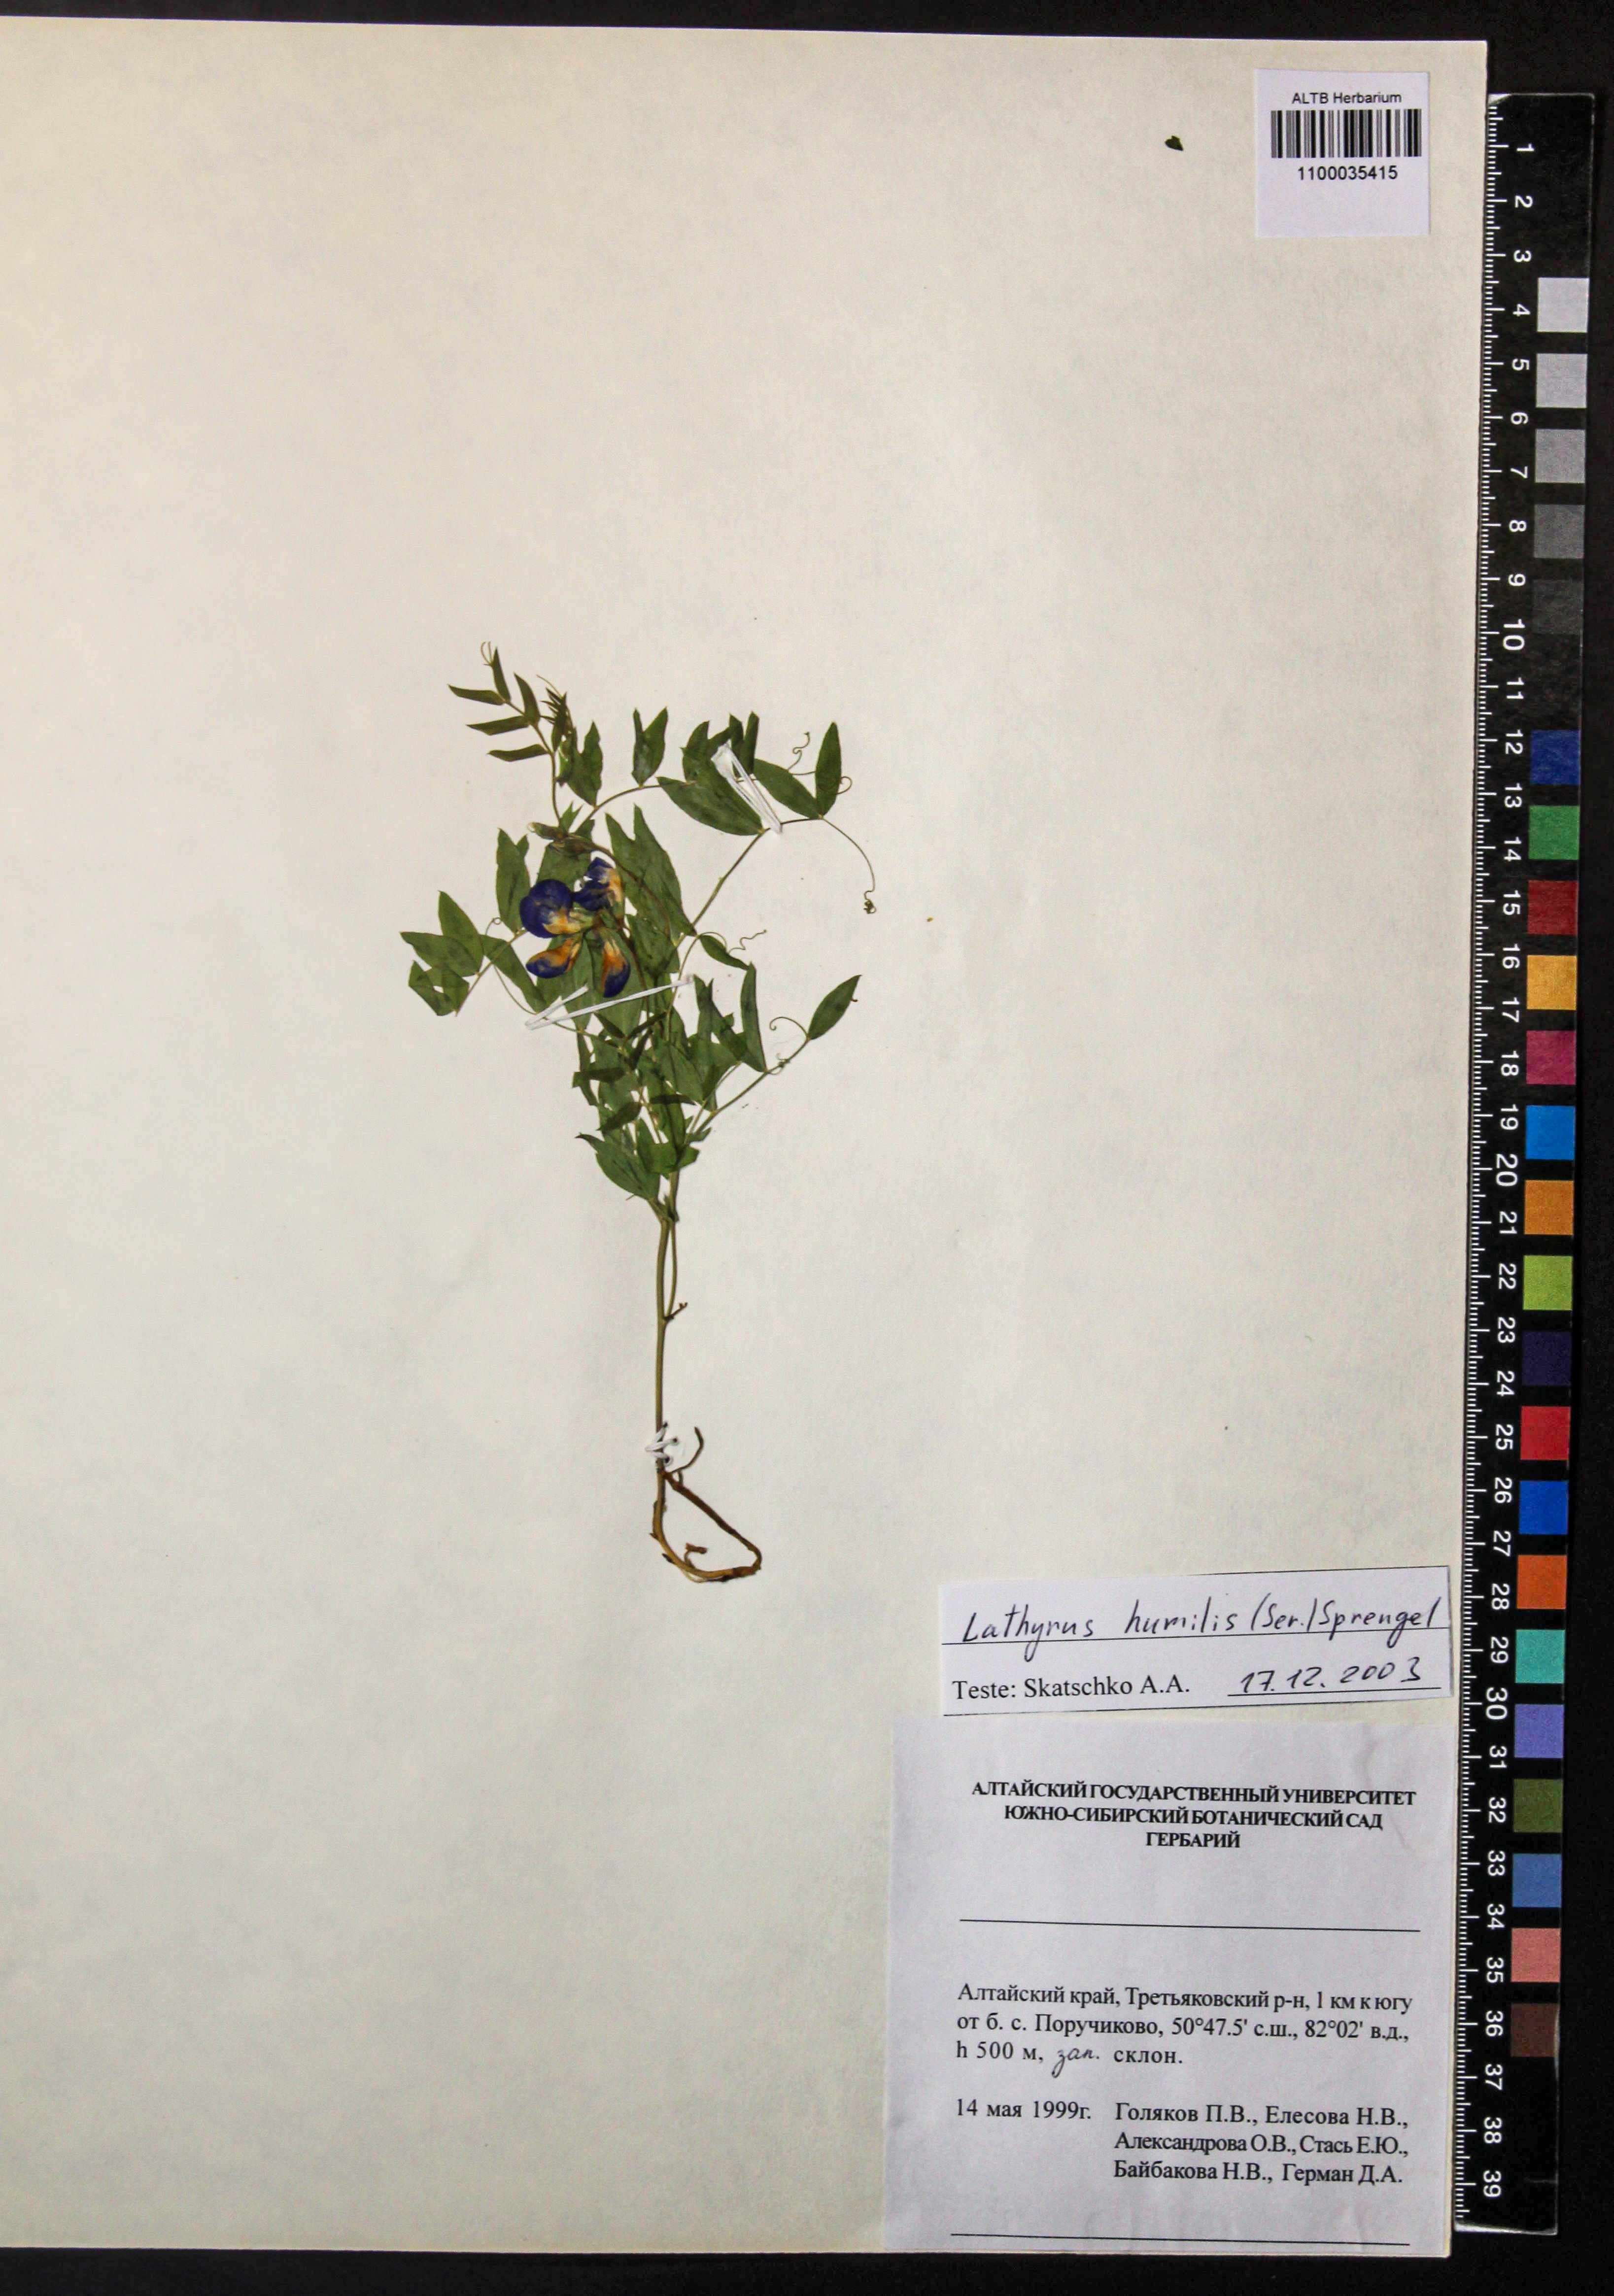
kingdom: Plantae
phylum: Tracheophyta
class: Magnoliopsida
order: Fabales
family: Fabaceae
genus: Lathyrus
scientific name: Lathyrus humilis
